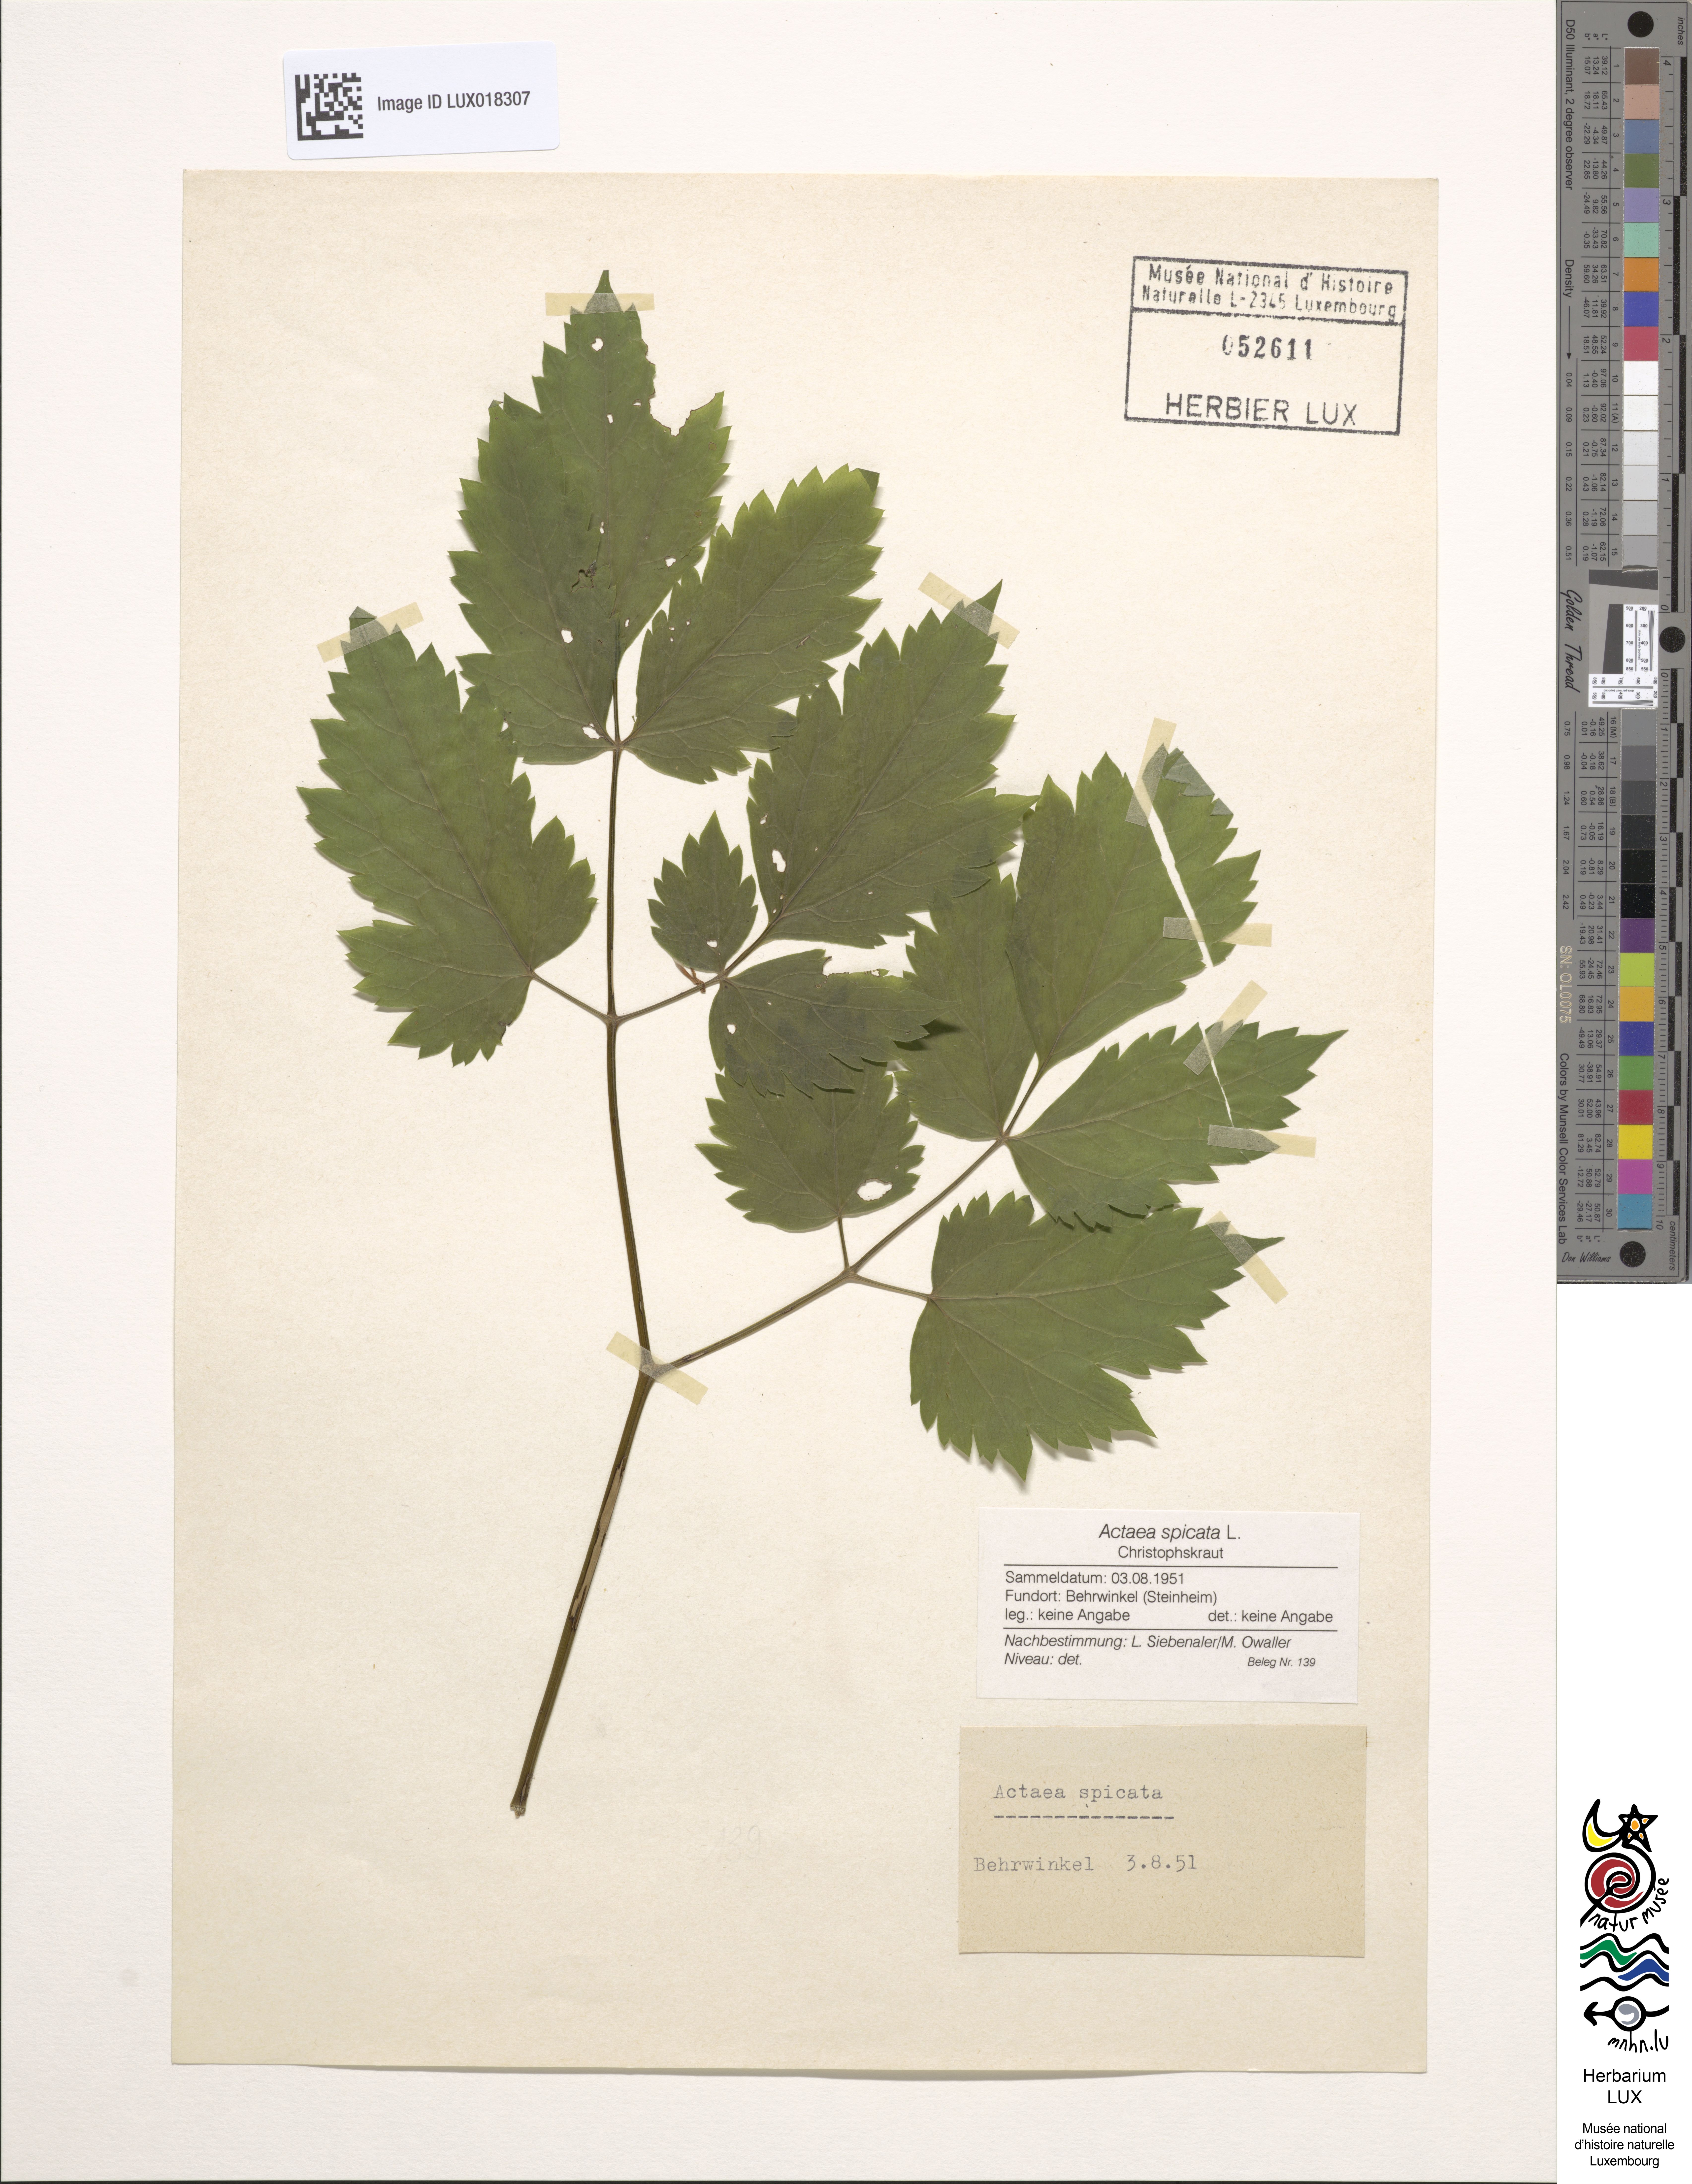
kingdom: Plantae
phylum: Tracheophyta
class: Magnoliopsida
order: Ranunculales
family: Ranunculaceae
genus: Actaea
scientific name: Actaea spicata
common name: Baneberry
